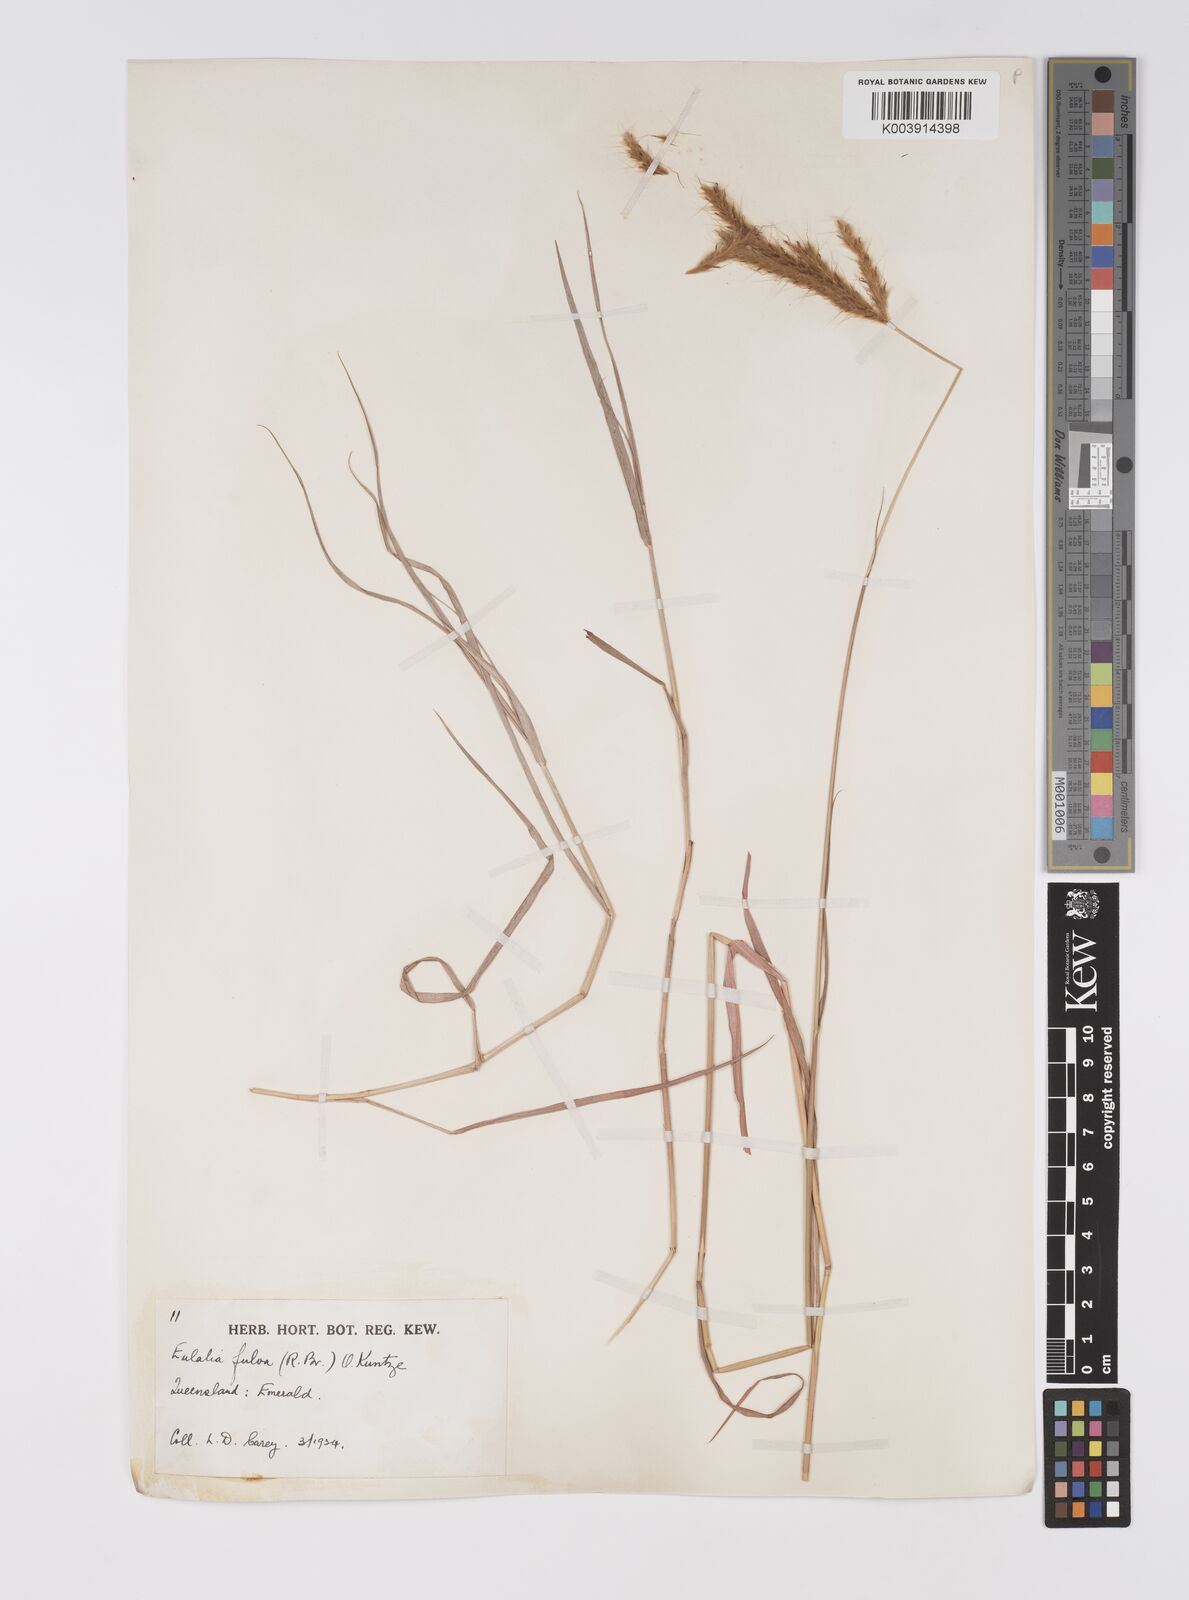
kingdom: Plantae
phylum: Tracheophyta
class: Liliopsida
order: Poales
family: Poaceae
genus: Eulalia
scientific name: Eulalia aurea
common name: Silky browntop
